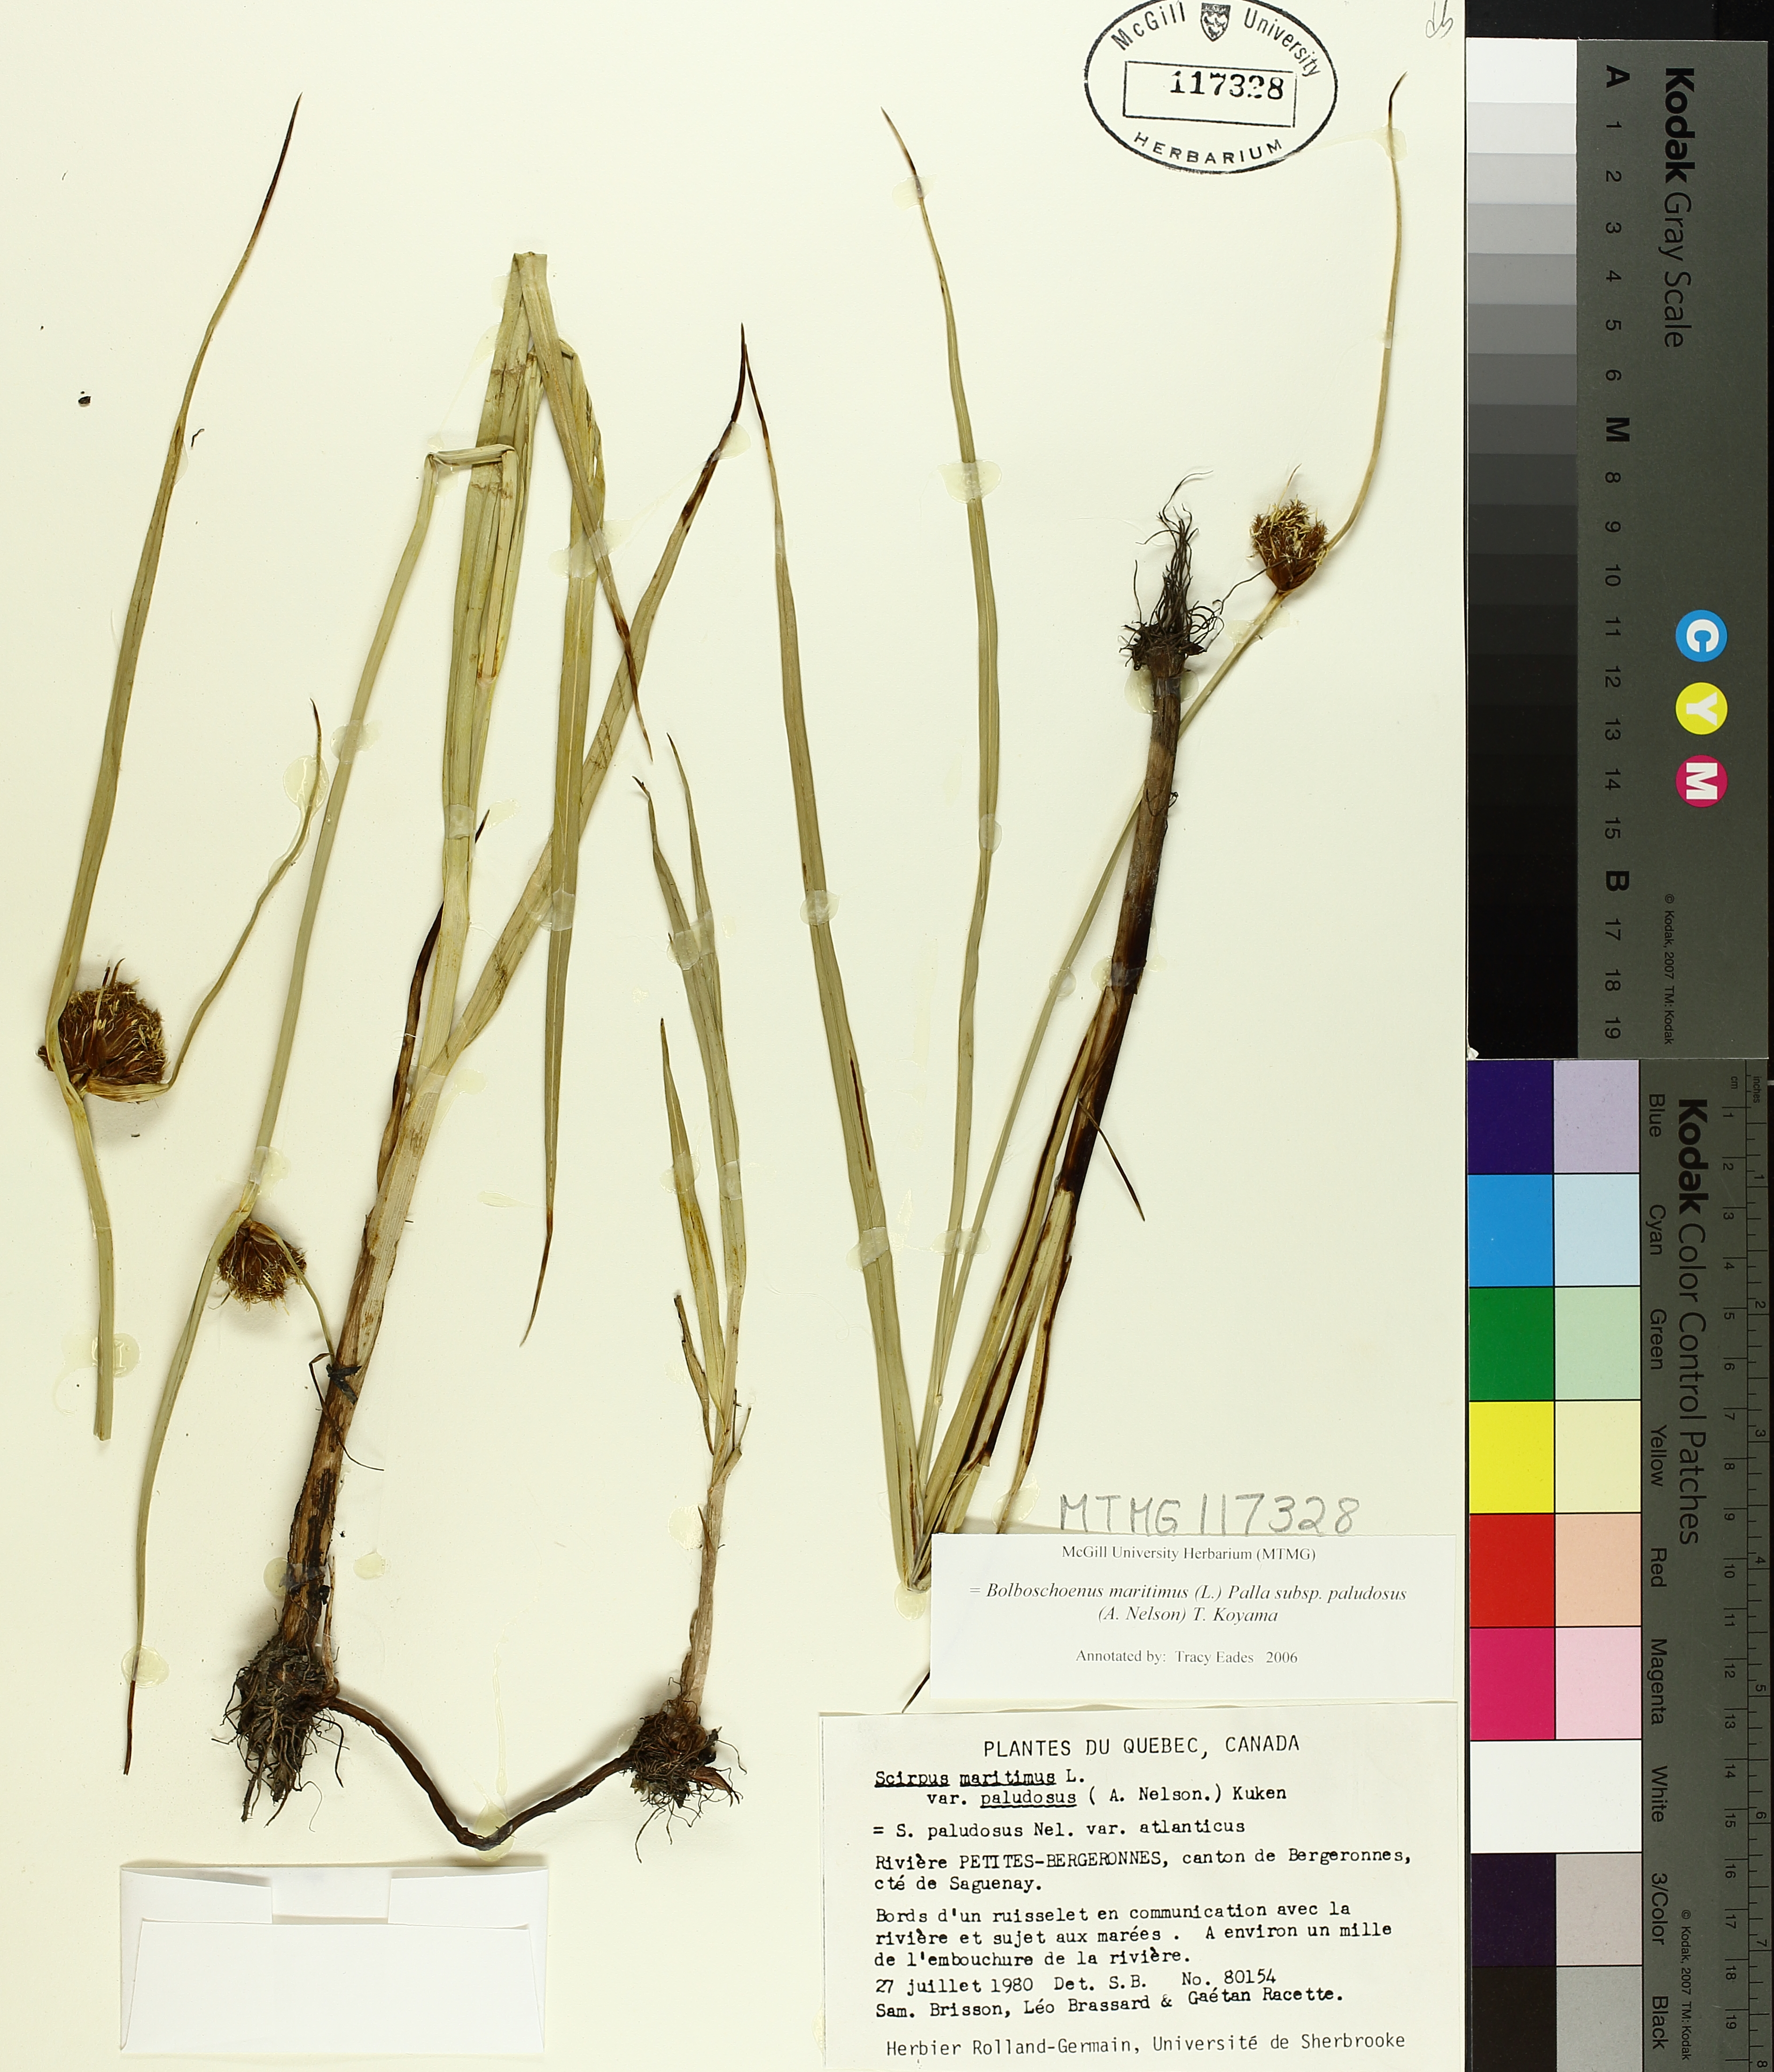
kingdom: Plantae
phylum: Tracheophyta
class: Liliopsida
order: Poales
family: Cyperaceae
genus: Bolboschoenus
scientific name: Bolboschoenus maritimus
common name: Sea club-rush
